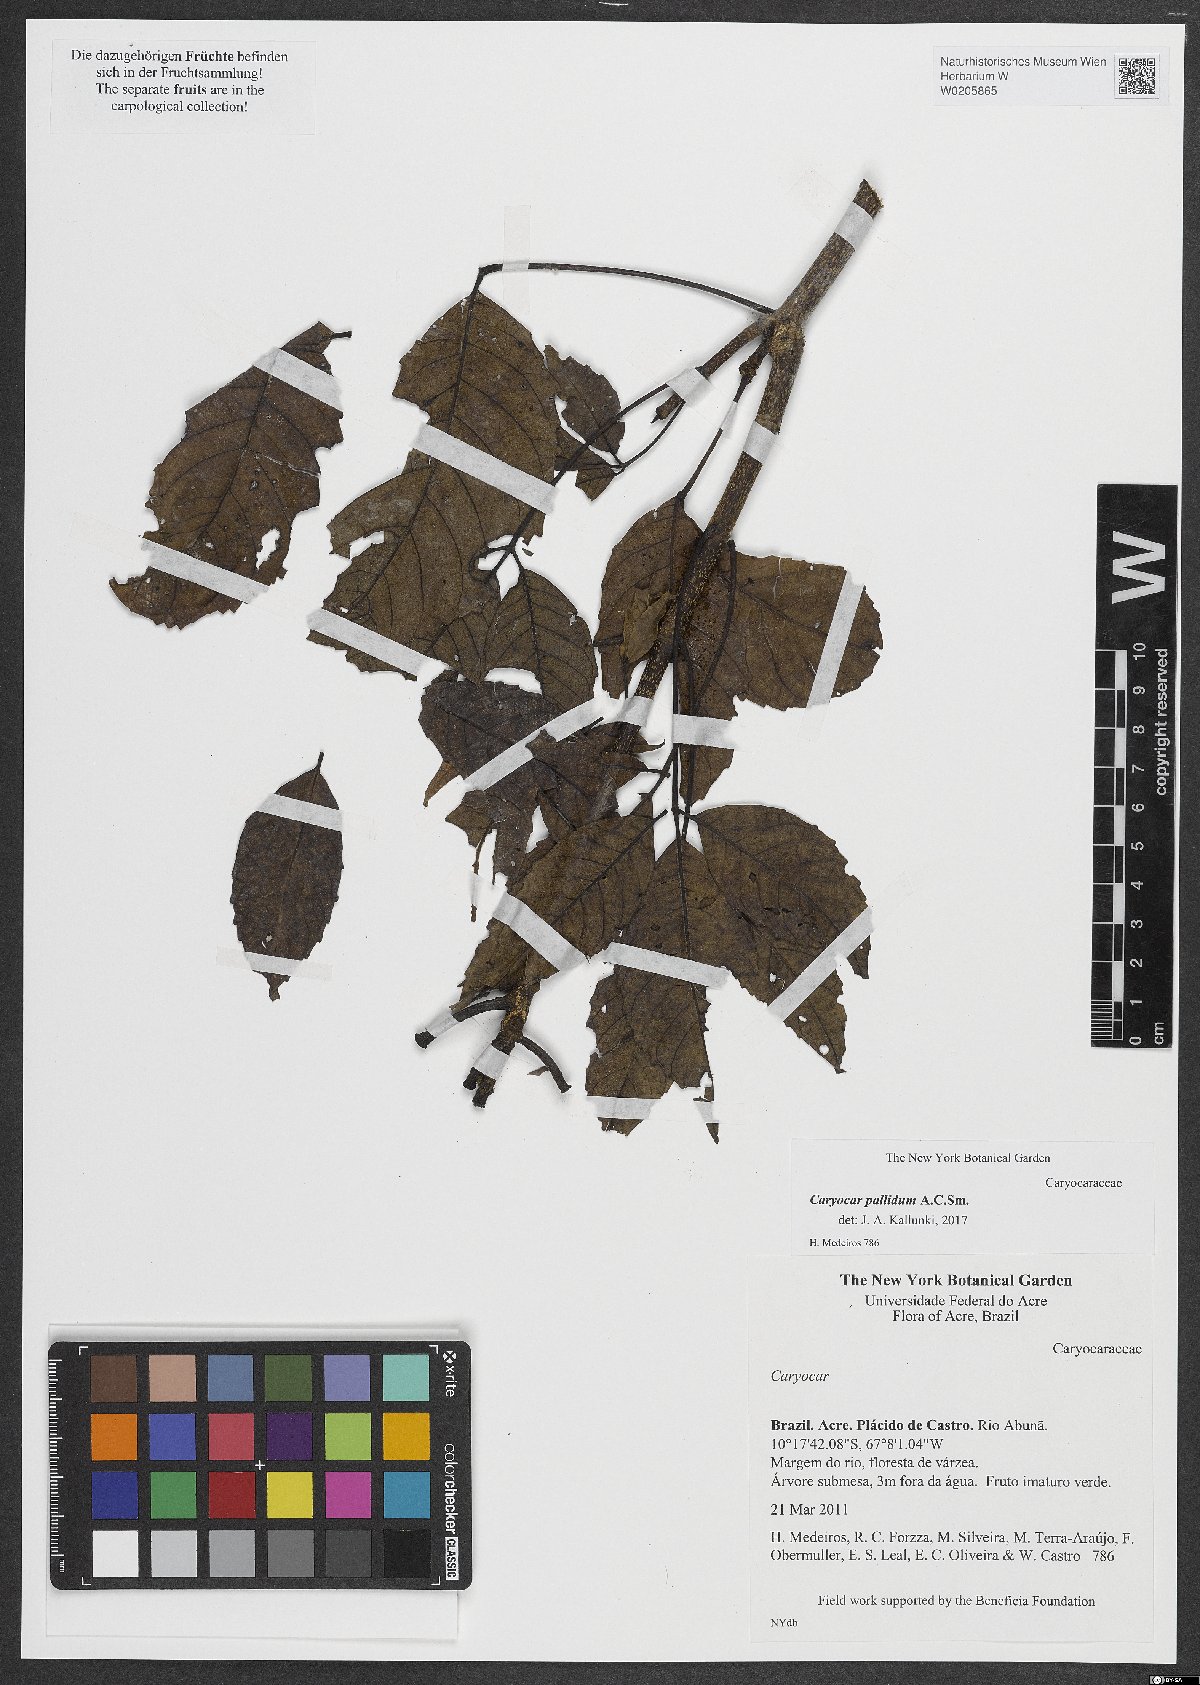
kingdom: Plantae
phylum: Tracheophyta
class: Magnoliopsida
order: Malpighiales
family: Caryocaraceae
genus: Caryocar
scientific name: Caryocar pallidum
